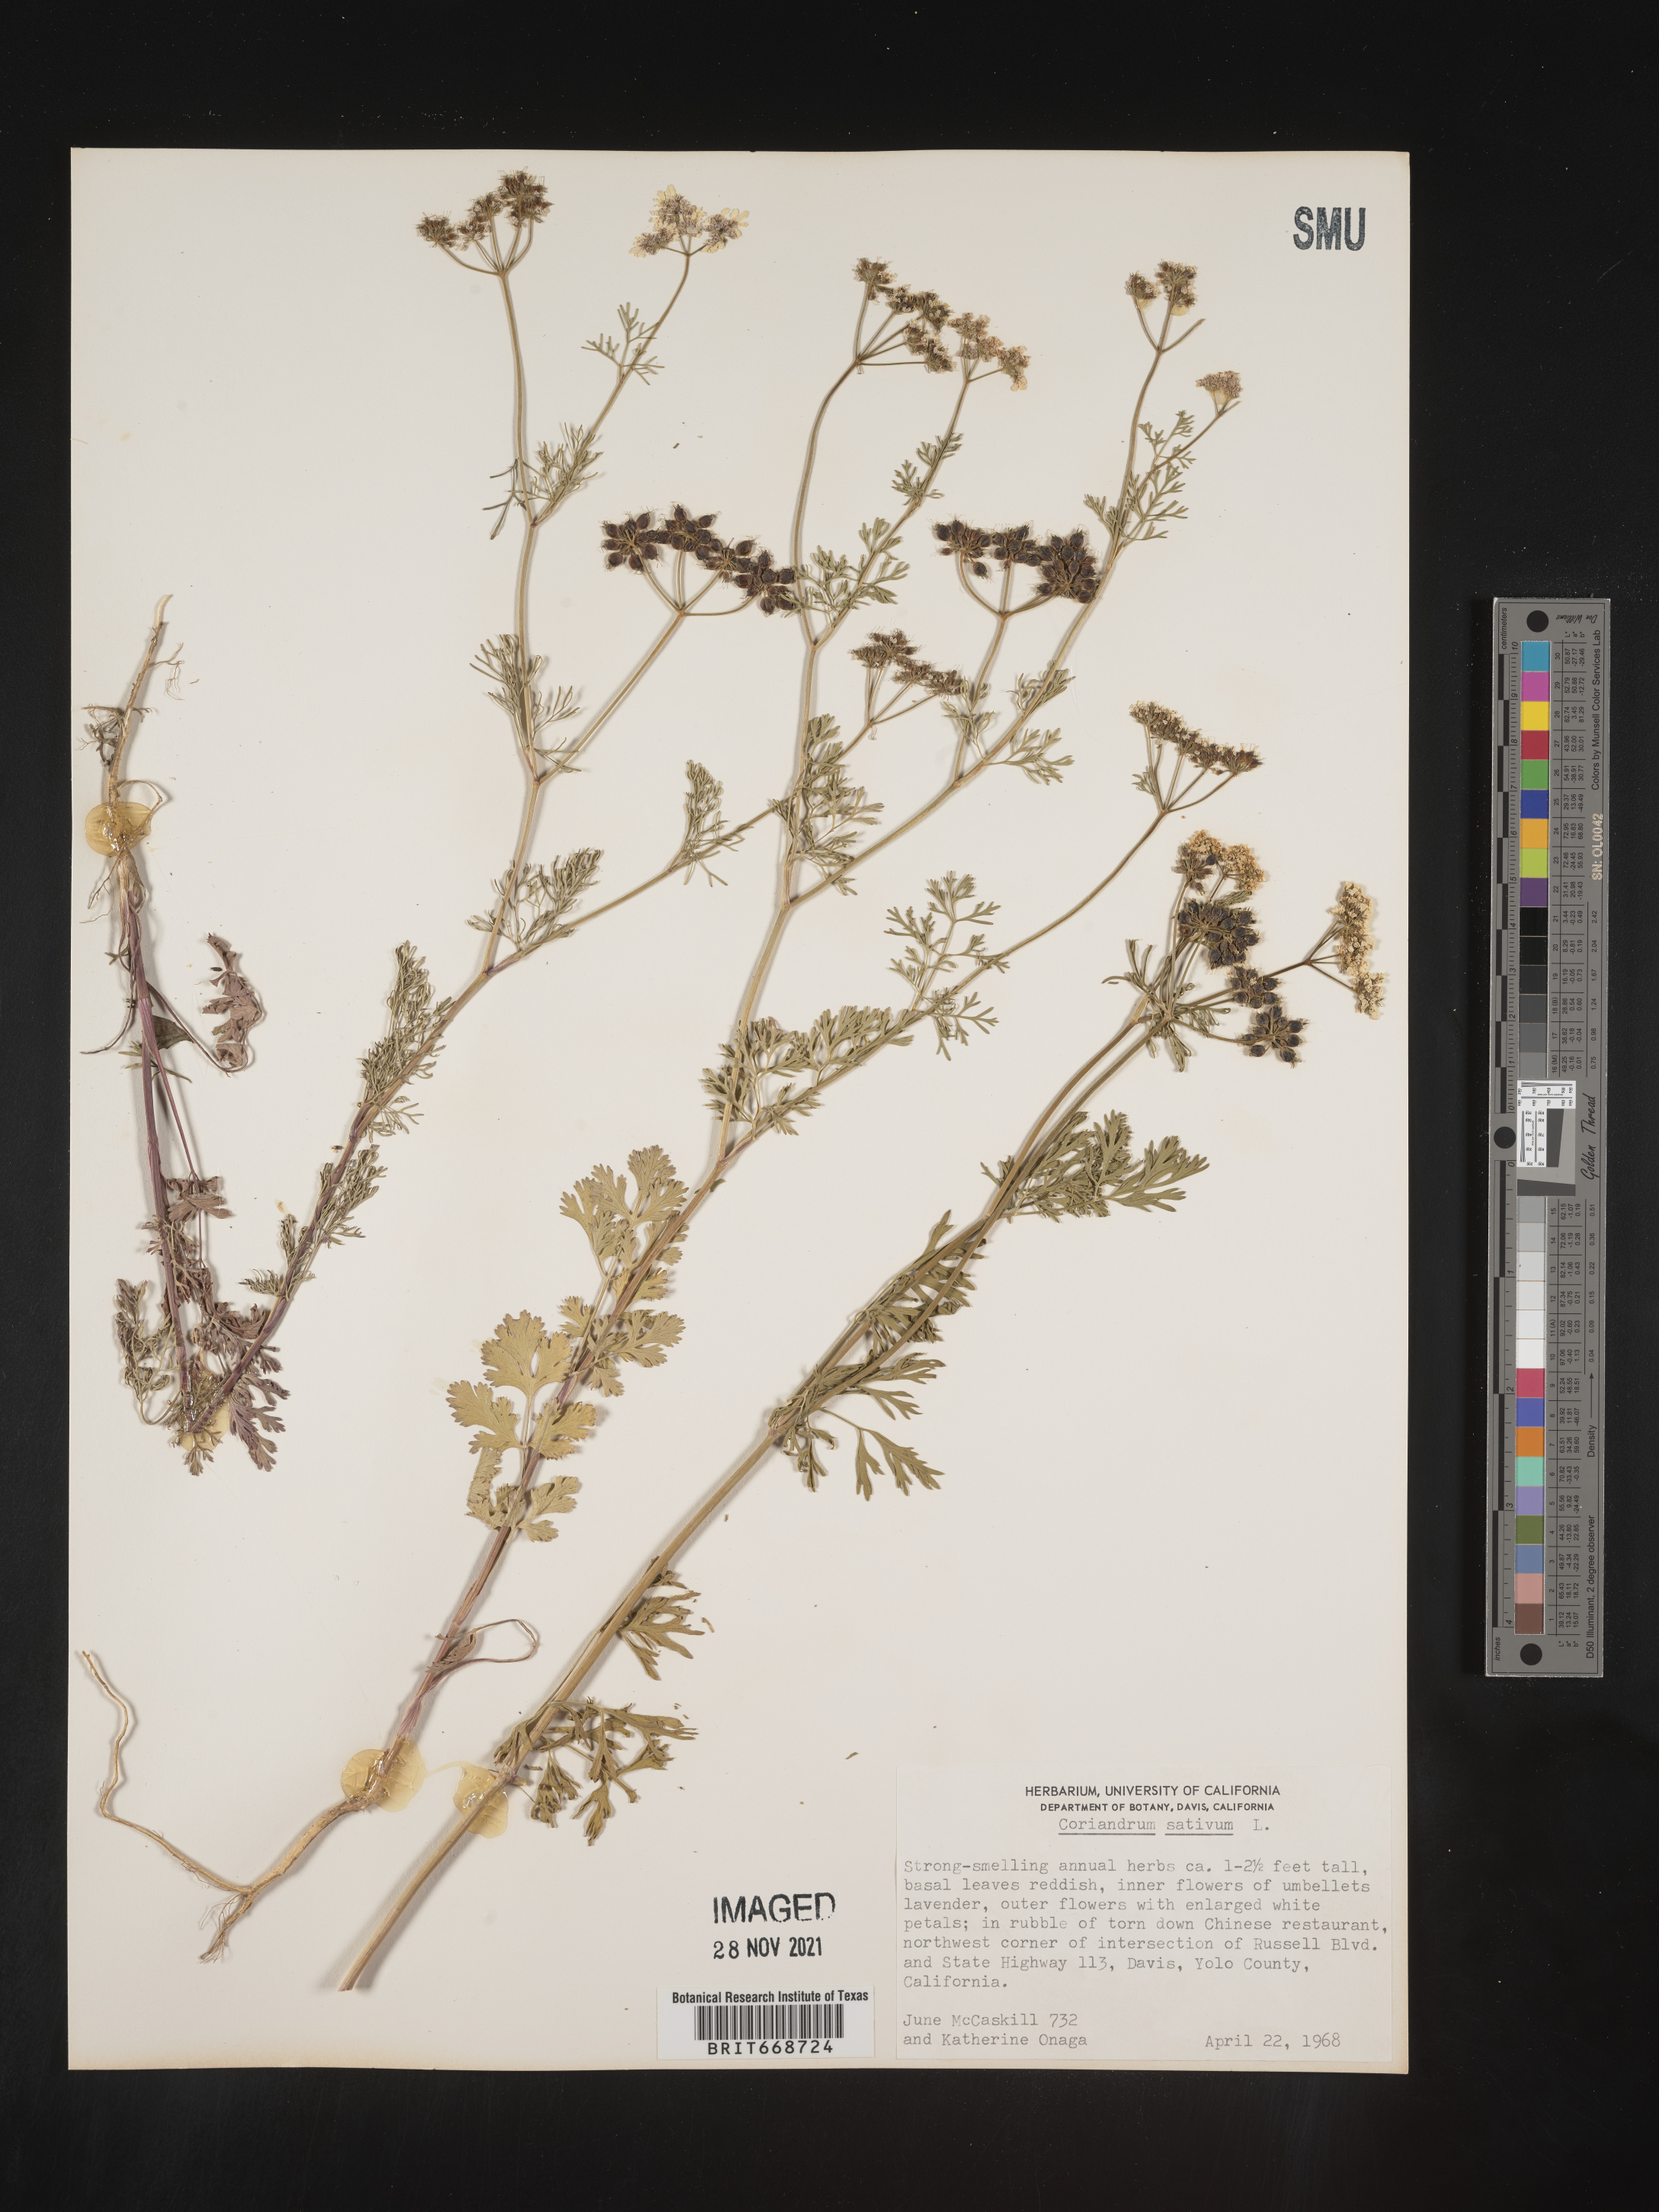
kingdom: Plantae
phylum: Tracheophyta
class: Magnoliopsida
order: Apiales
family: Apiaceae
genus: Coriandrum
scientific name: Coriandrum
